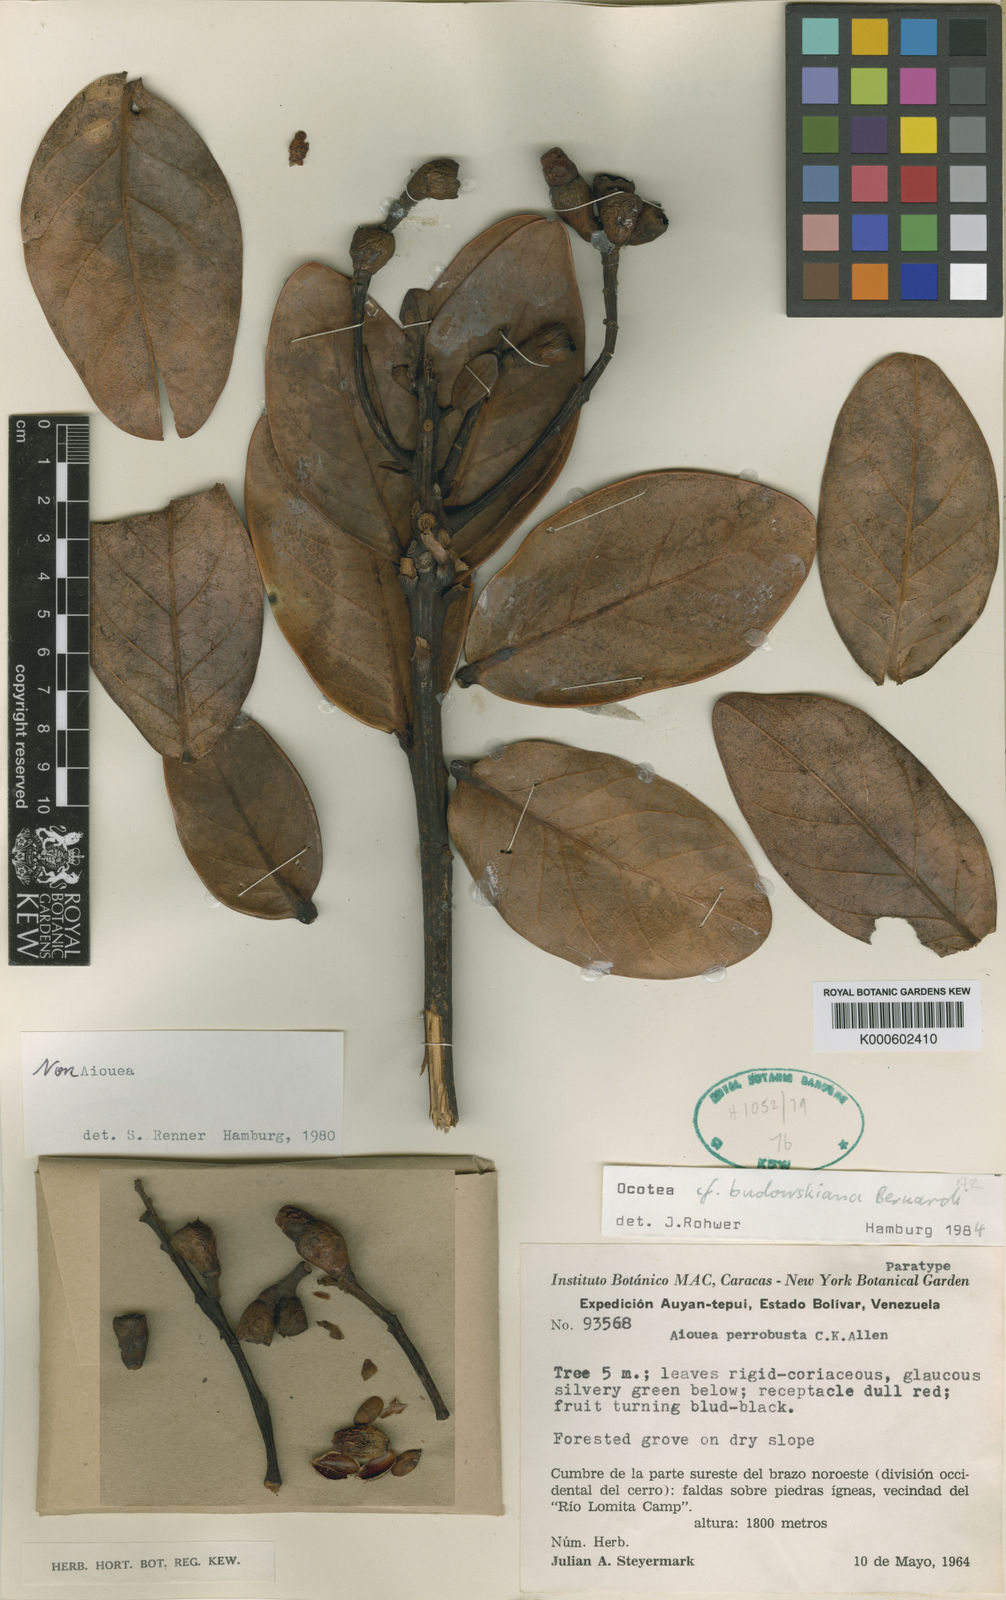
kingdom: Plantae
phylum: Tracheophyta
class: Magnoliopsida
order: Laurales
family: Lauraceae
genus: Ocotea
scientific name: Ocotea erectifolia
